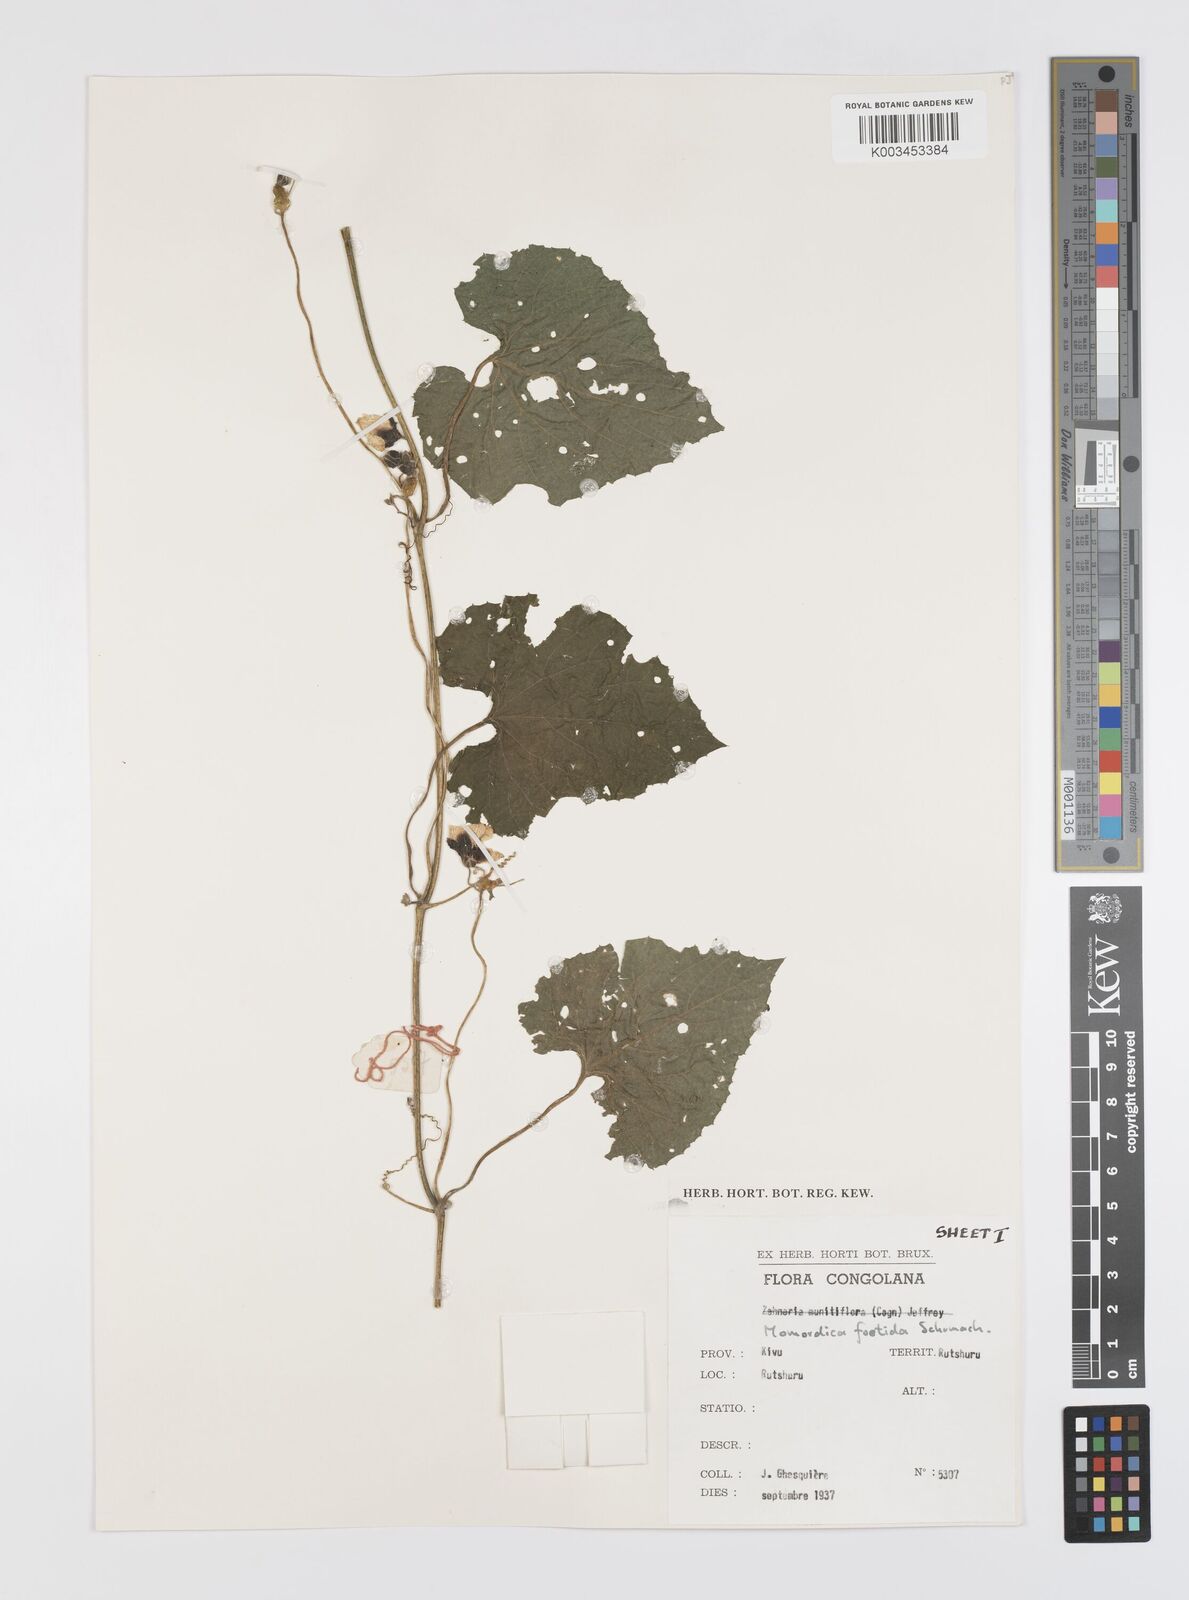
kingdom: Plantae
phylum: Tracheophyta
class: Magnoliopsida
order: Cucurbitales
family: Cucurbitaceae
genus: Momordica
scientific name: Momordica foetida
